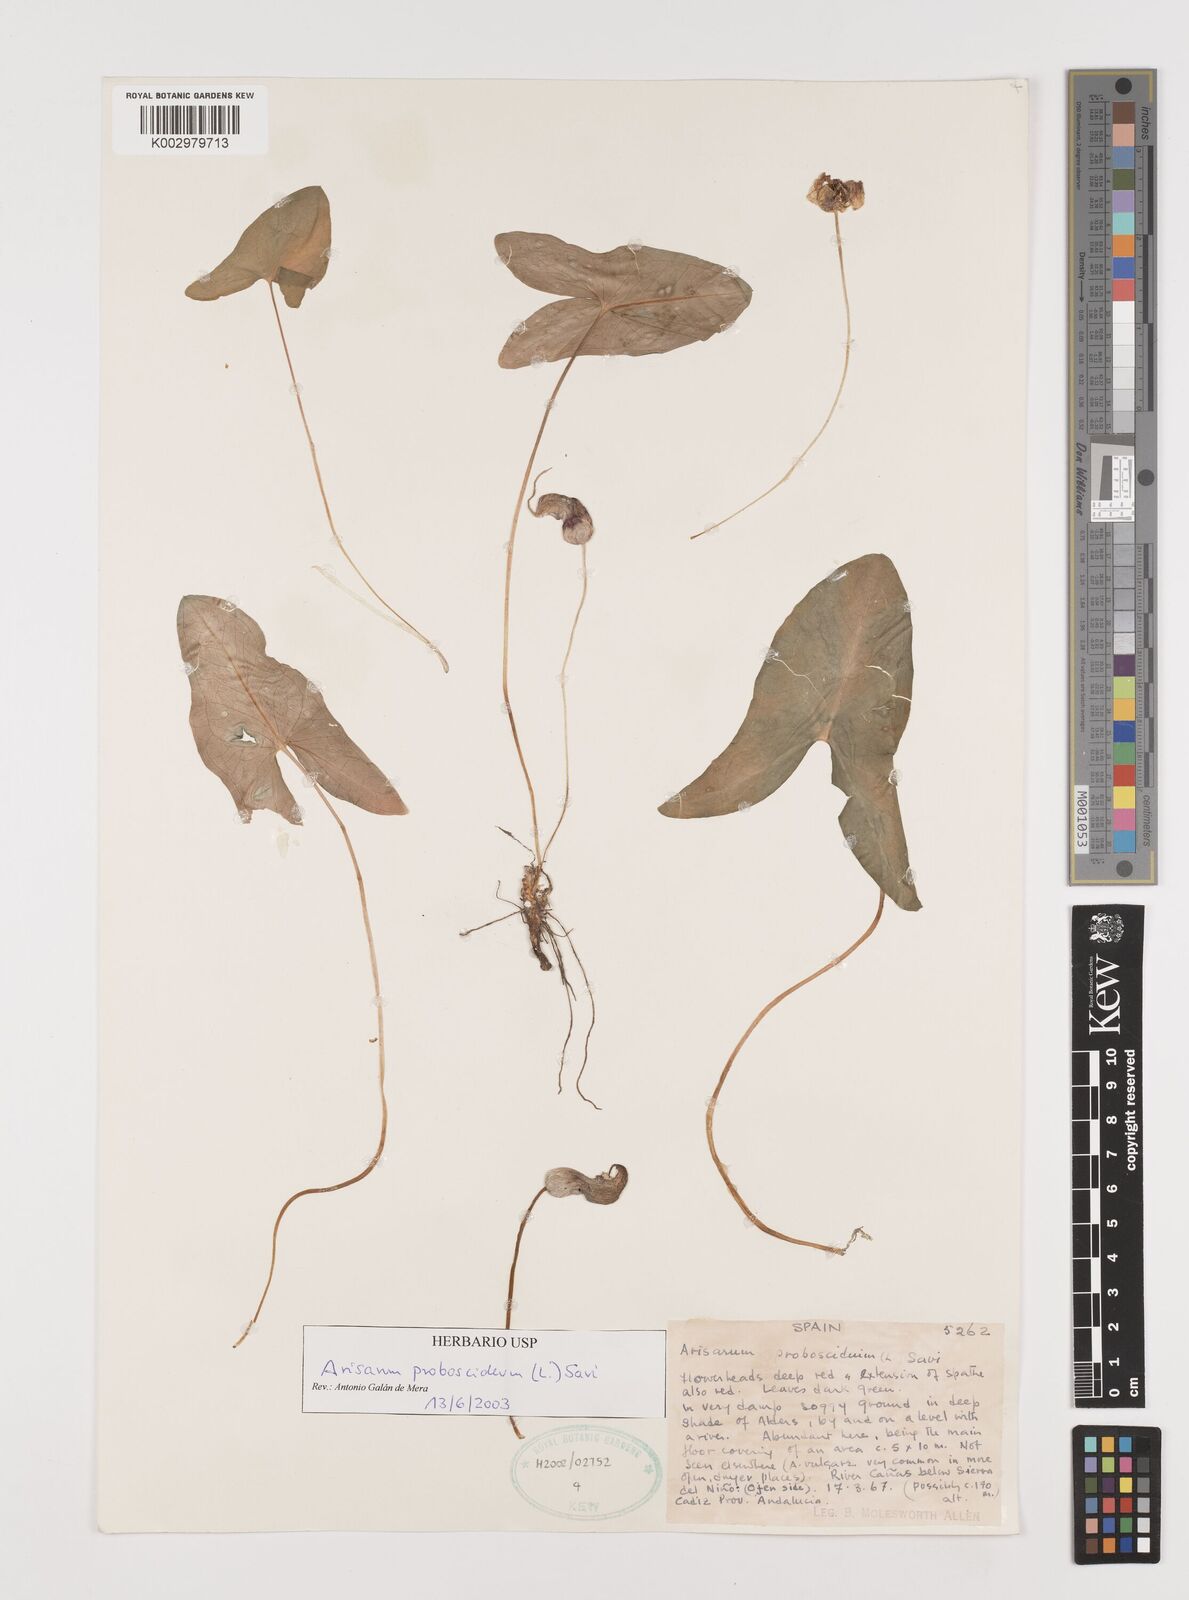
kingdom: Plantae
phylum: Tracheophyta
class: Liliopsida
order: Alismatales
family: Araceae
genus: Arisarum
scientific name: Arisarum proboscideum
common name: Mousetailplant
